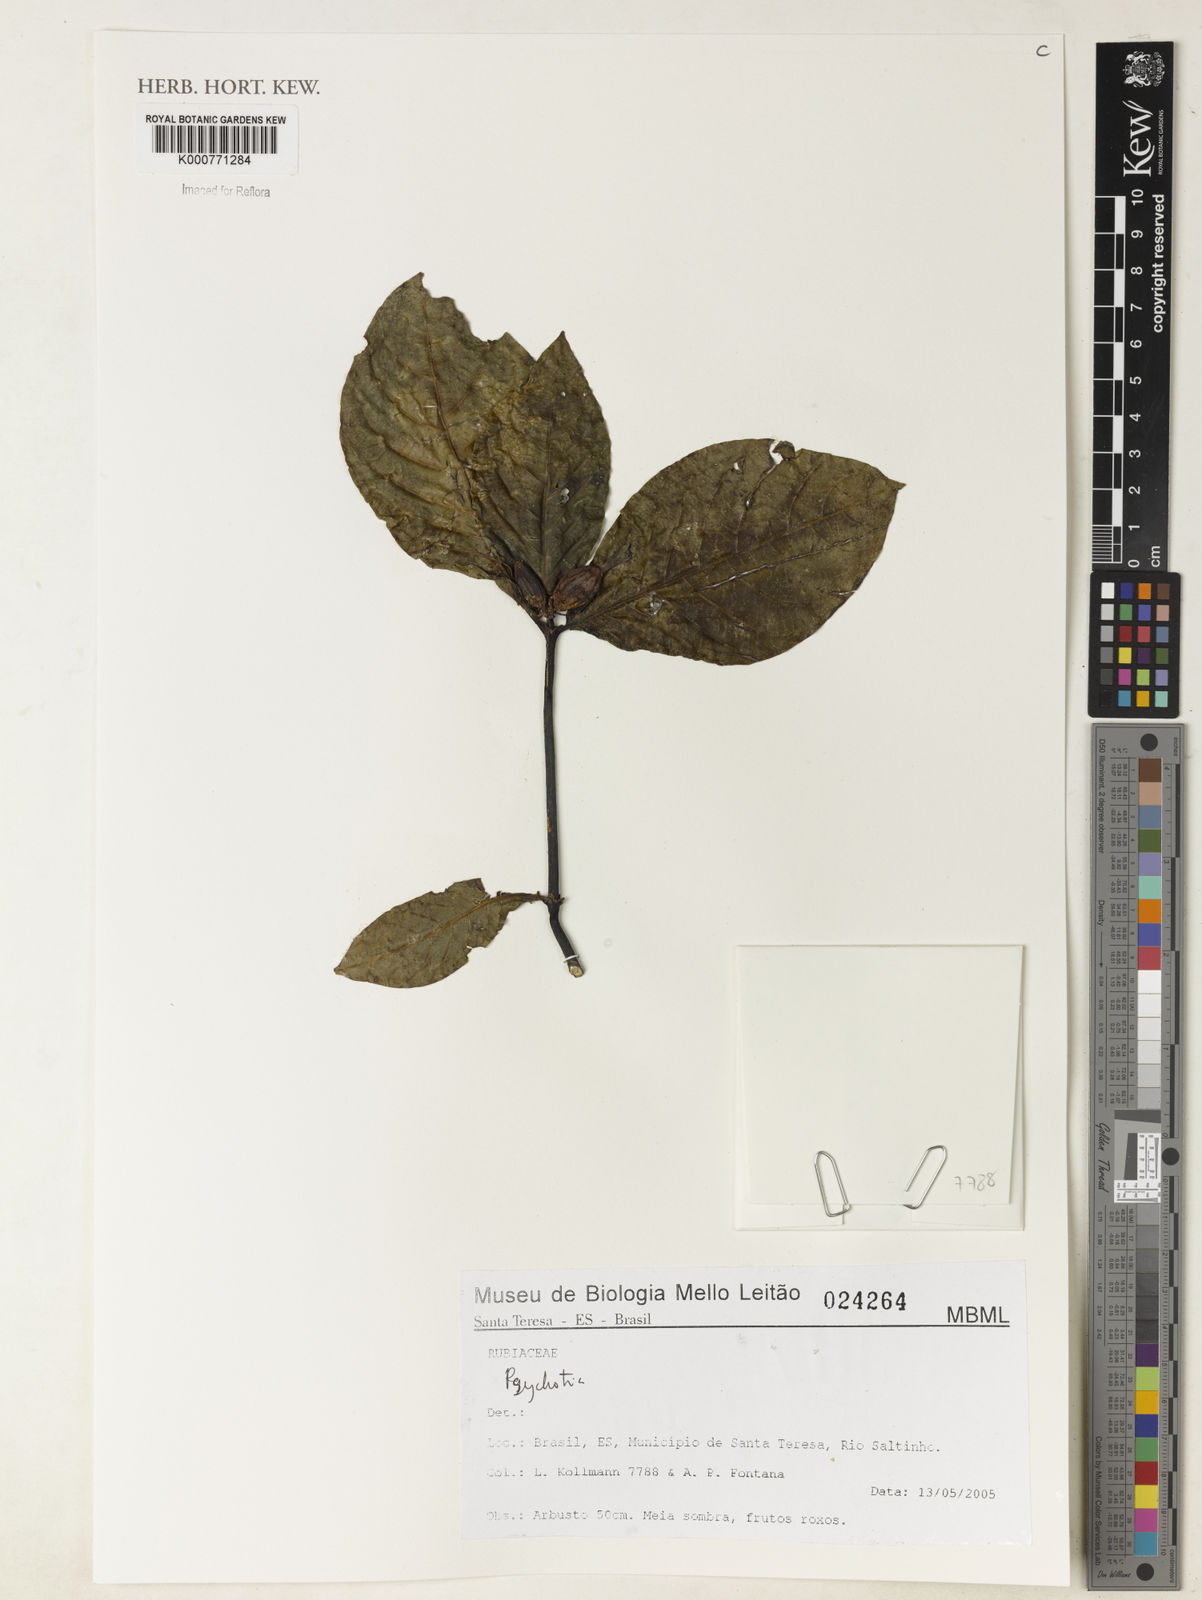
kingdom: Plantae
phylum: Tracheophyta
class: Magnoliopsida
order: Gentianales
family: Rubiaceae
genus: Psychotria
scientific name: Psychotria
